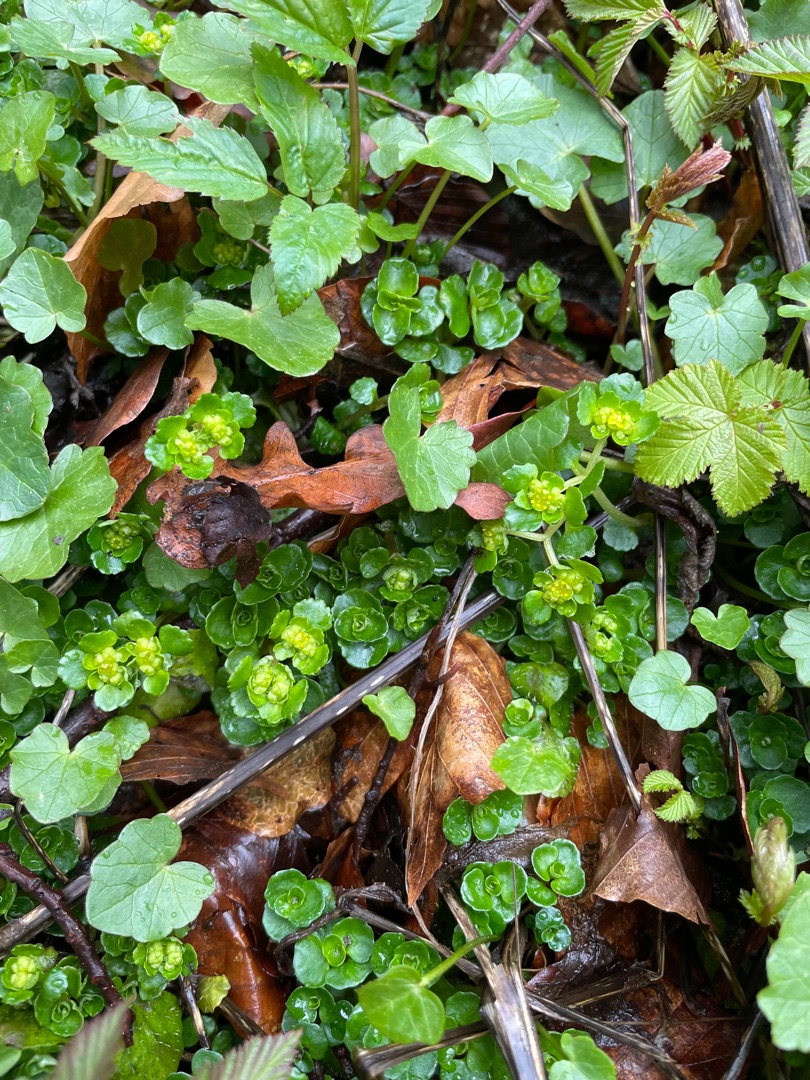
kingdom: Plantae
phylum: Tracheophyta
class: Magnoliopsida
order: Saxifragales
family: Saxifragaceae
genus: Chrysosplenium
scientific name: Chrysosplenium oppositifolium
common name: Småbladet milturt
